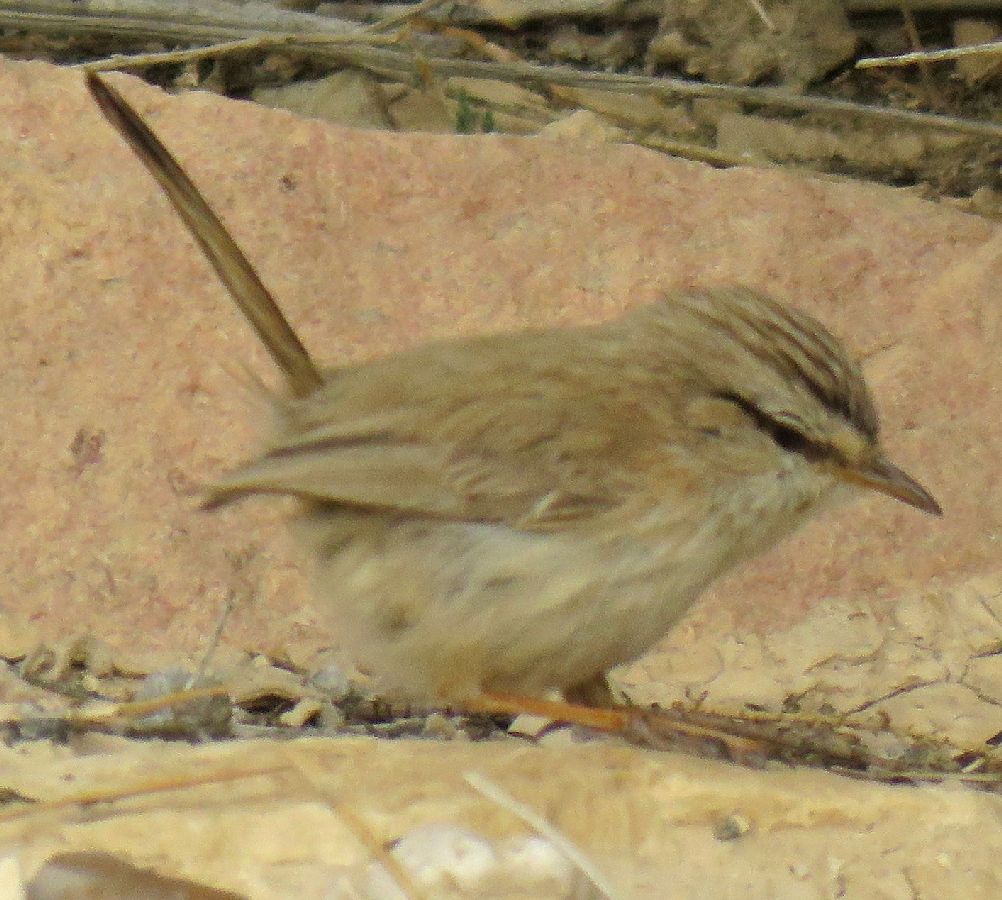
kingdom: Animalia
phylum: Chordata
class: Aves
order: Passeriformes
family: Scotocercidae
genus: Scotocerca
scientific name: Scotocerca inquieta
